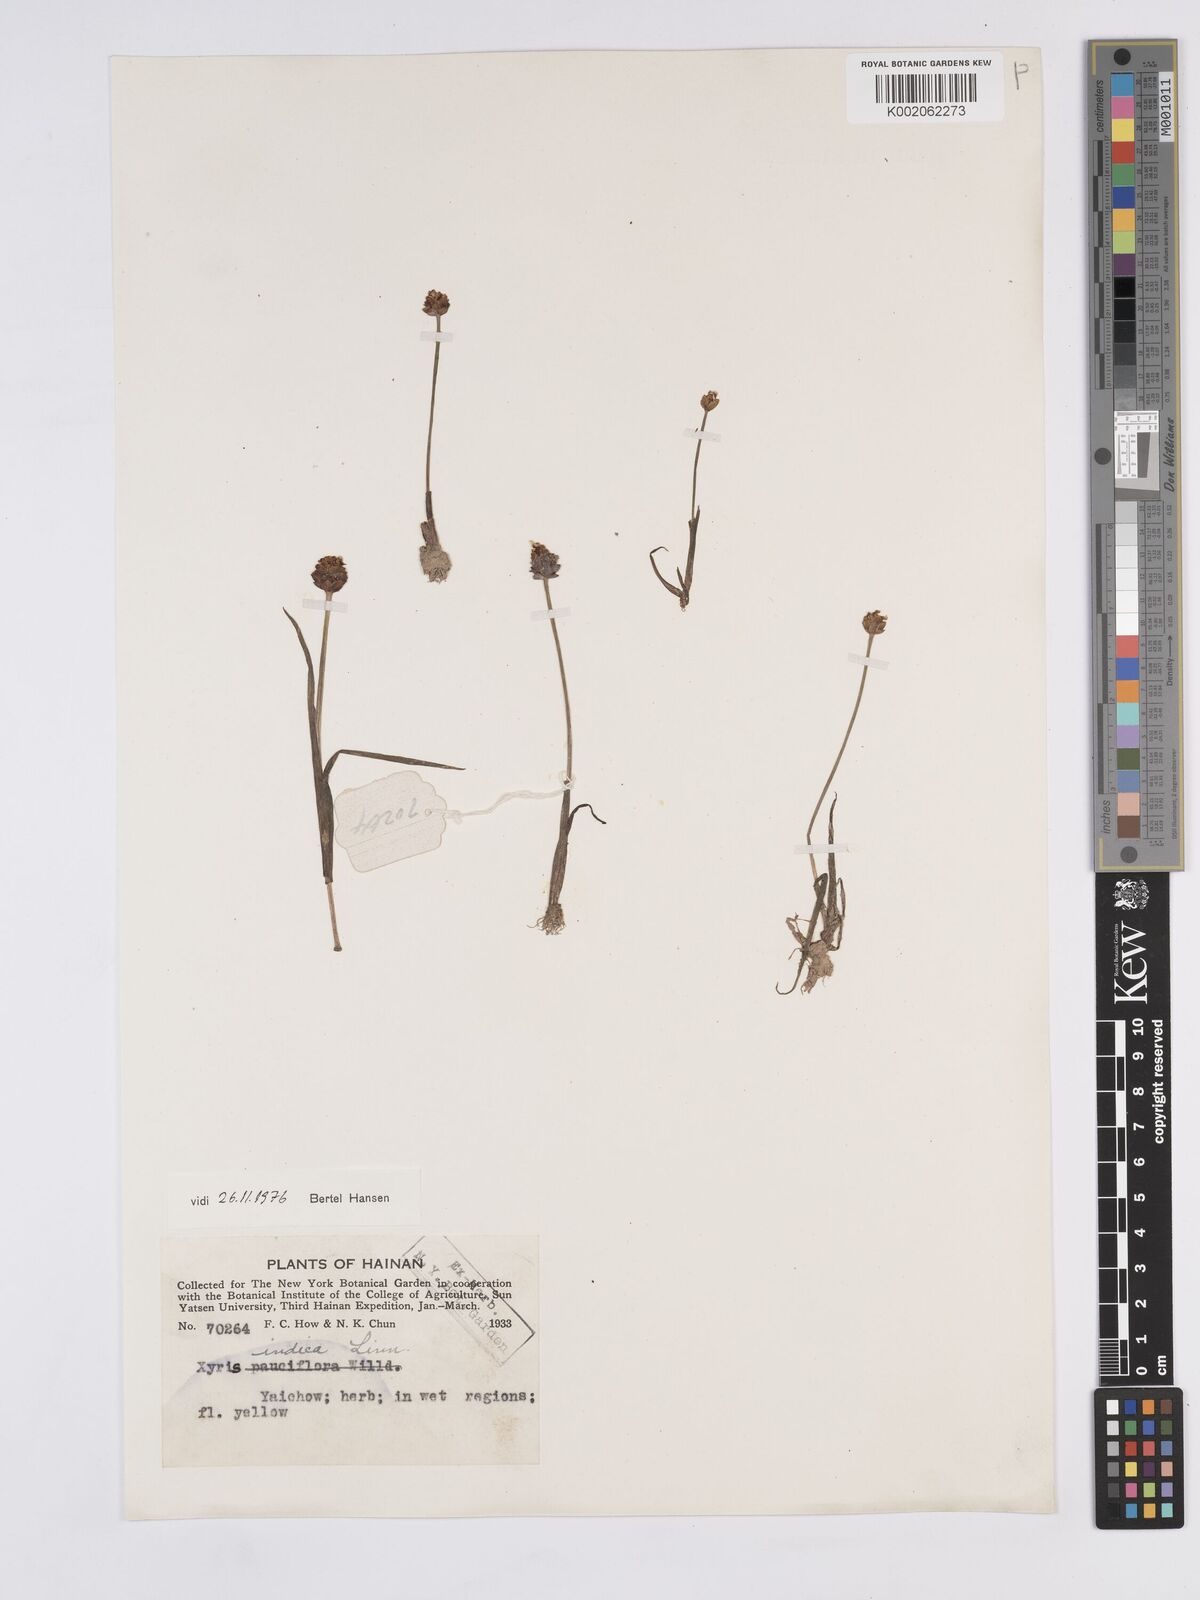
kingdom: Plantae
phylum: Tracheophyta
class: Liliopsida
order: Poales
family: Xyridaceae
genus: Xyris
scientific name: Xyris indica
